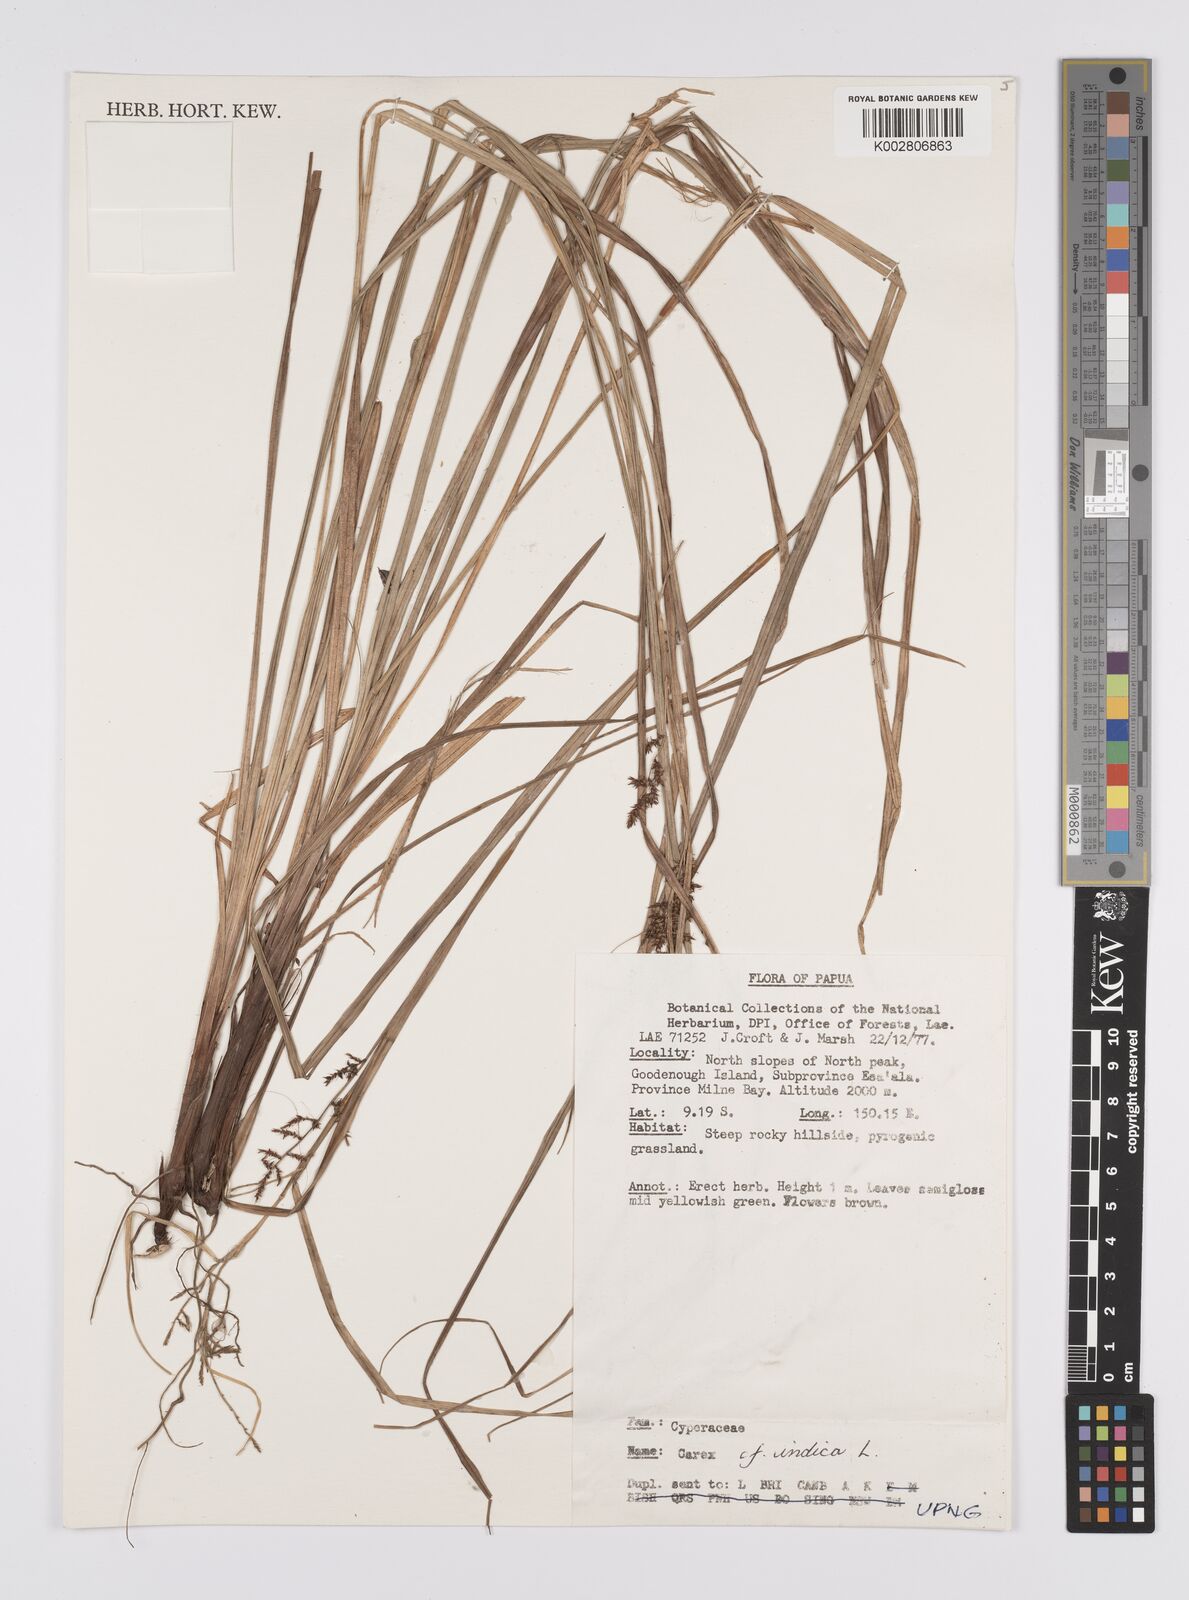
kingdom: Plantae
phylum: Tracheophyta
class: Liliopsida
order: Poales
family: Cyperaceae
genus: Carex
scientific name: Carex indica
